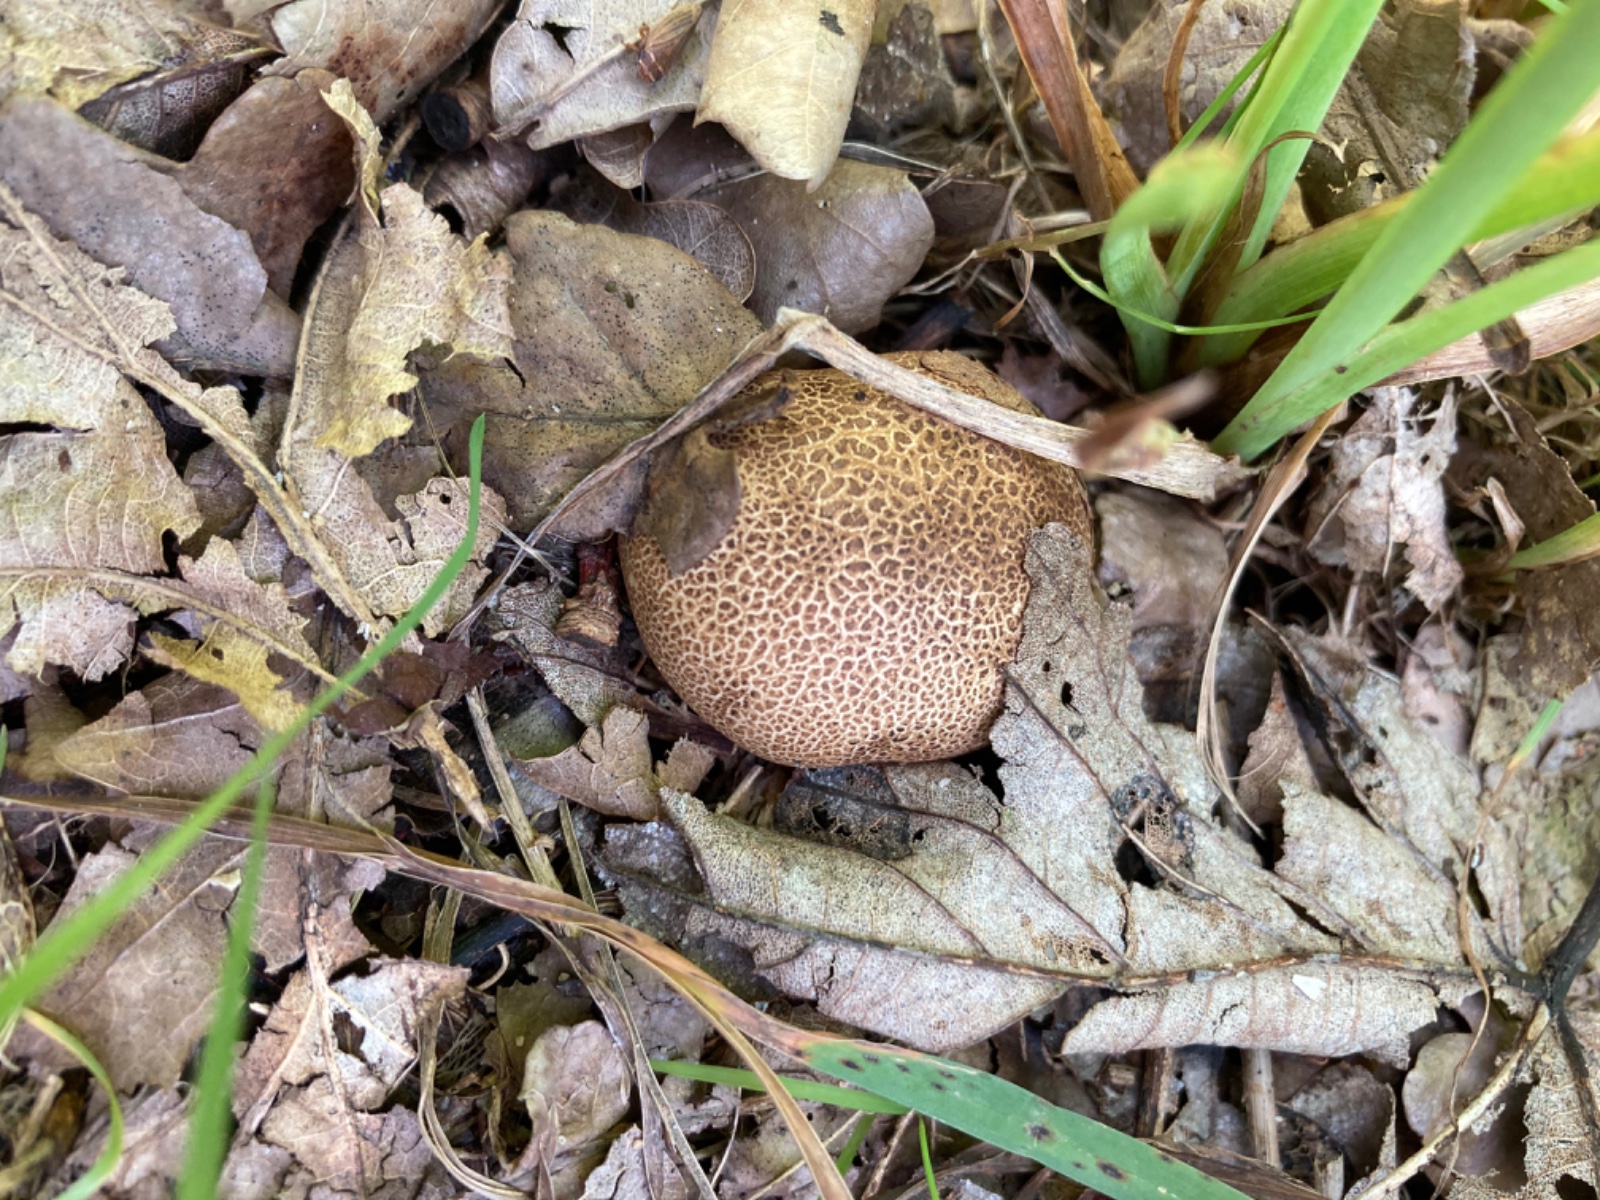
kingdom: Fungi
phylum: Basidiomycota
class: Agaricomycetes
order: Boletales
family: Sclerodermataceae
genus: Scleroderma
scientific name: Scleroderma areolatum
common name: plettet bruskbold
